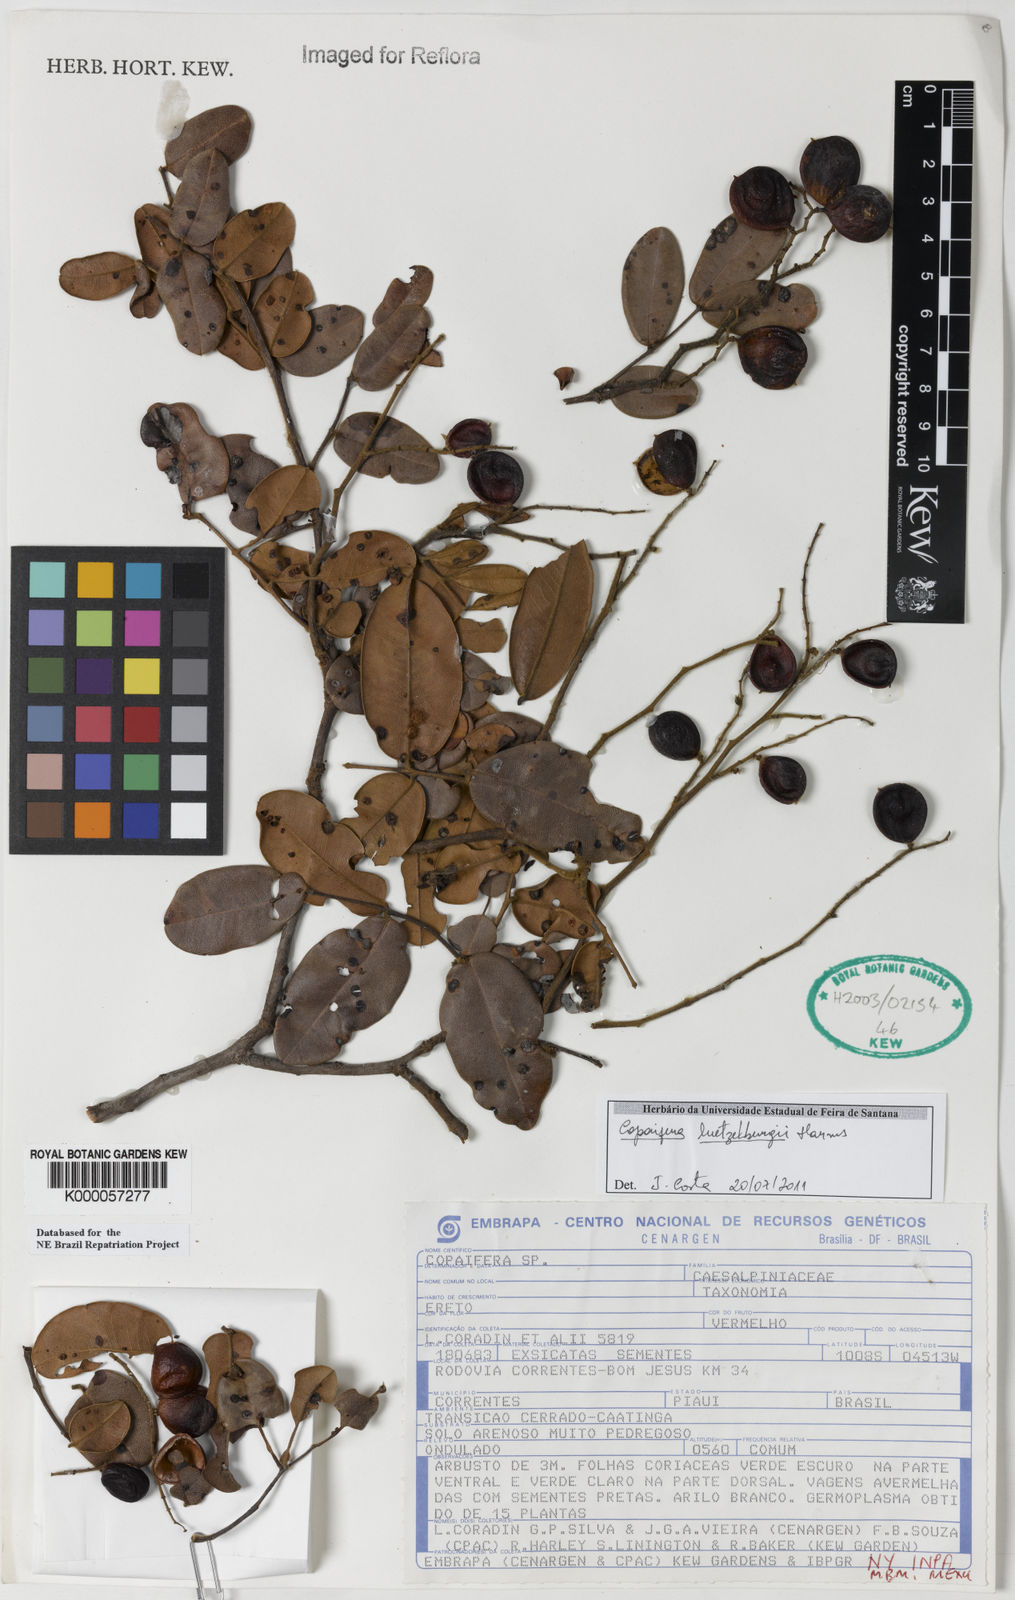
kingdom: Plantae
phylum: Tracheophyta
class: Magnoliopsida
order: Fabales
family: Fabaceae
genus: Copaifera
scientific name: Copaifera luetzelburgii
